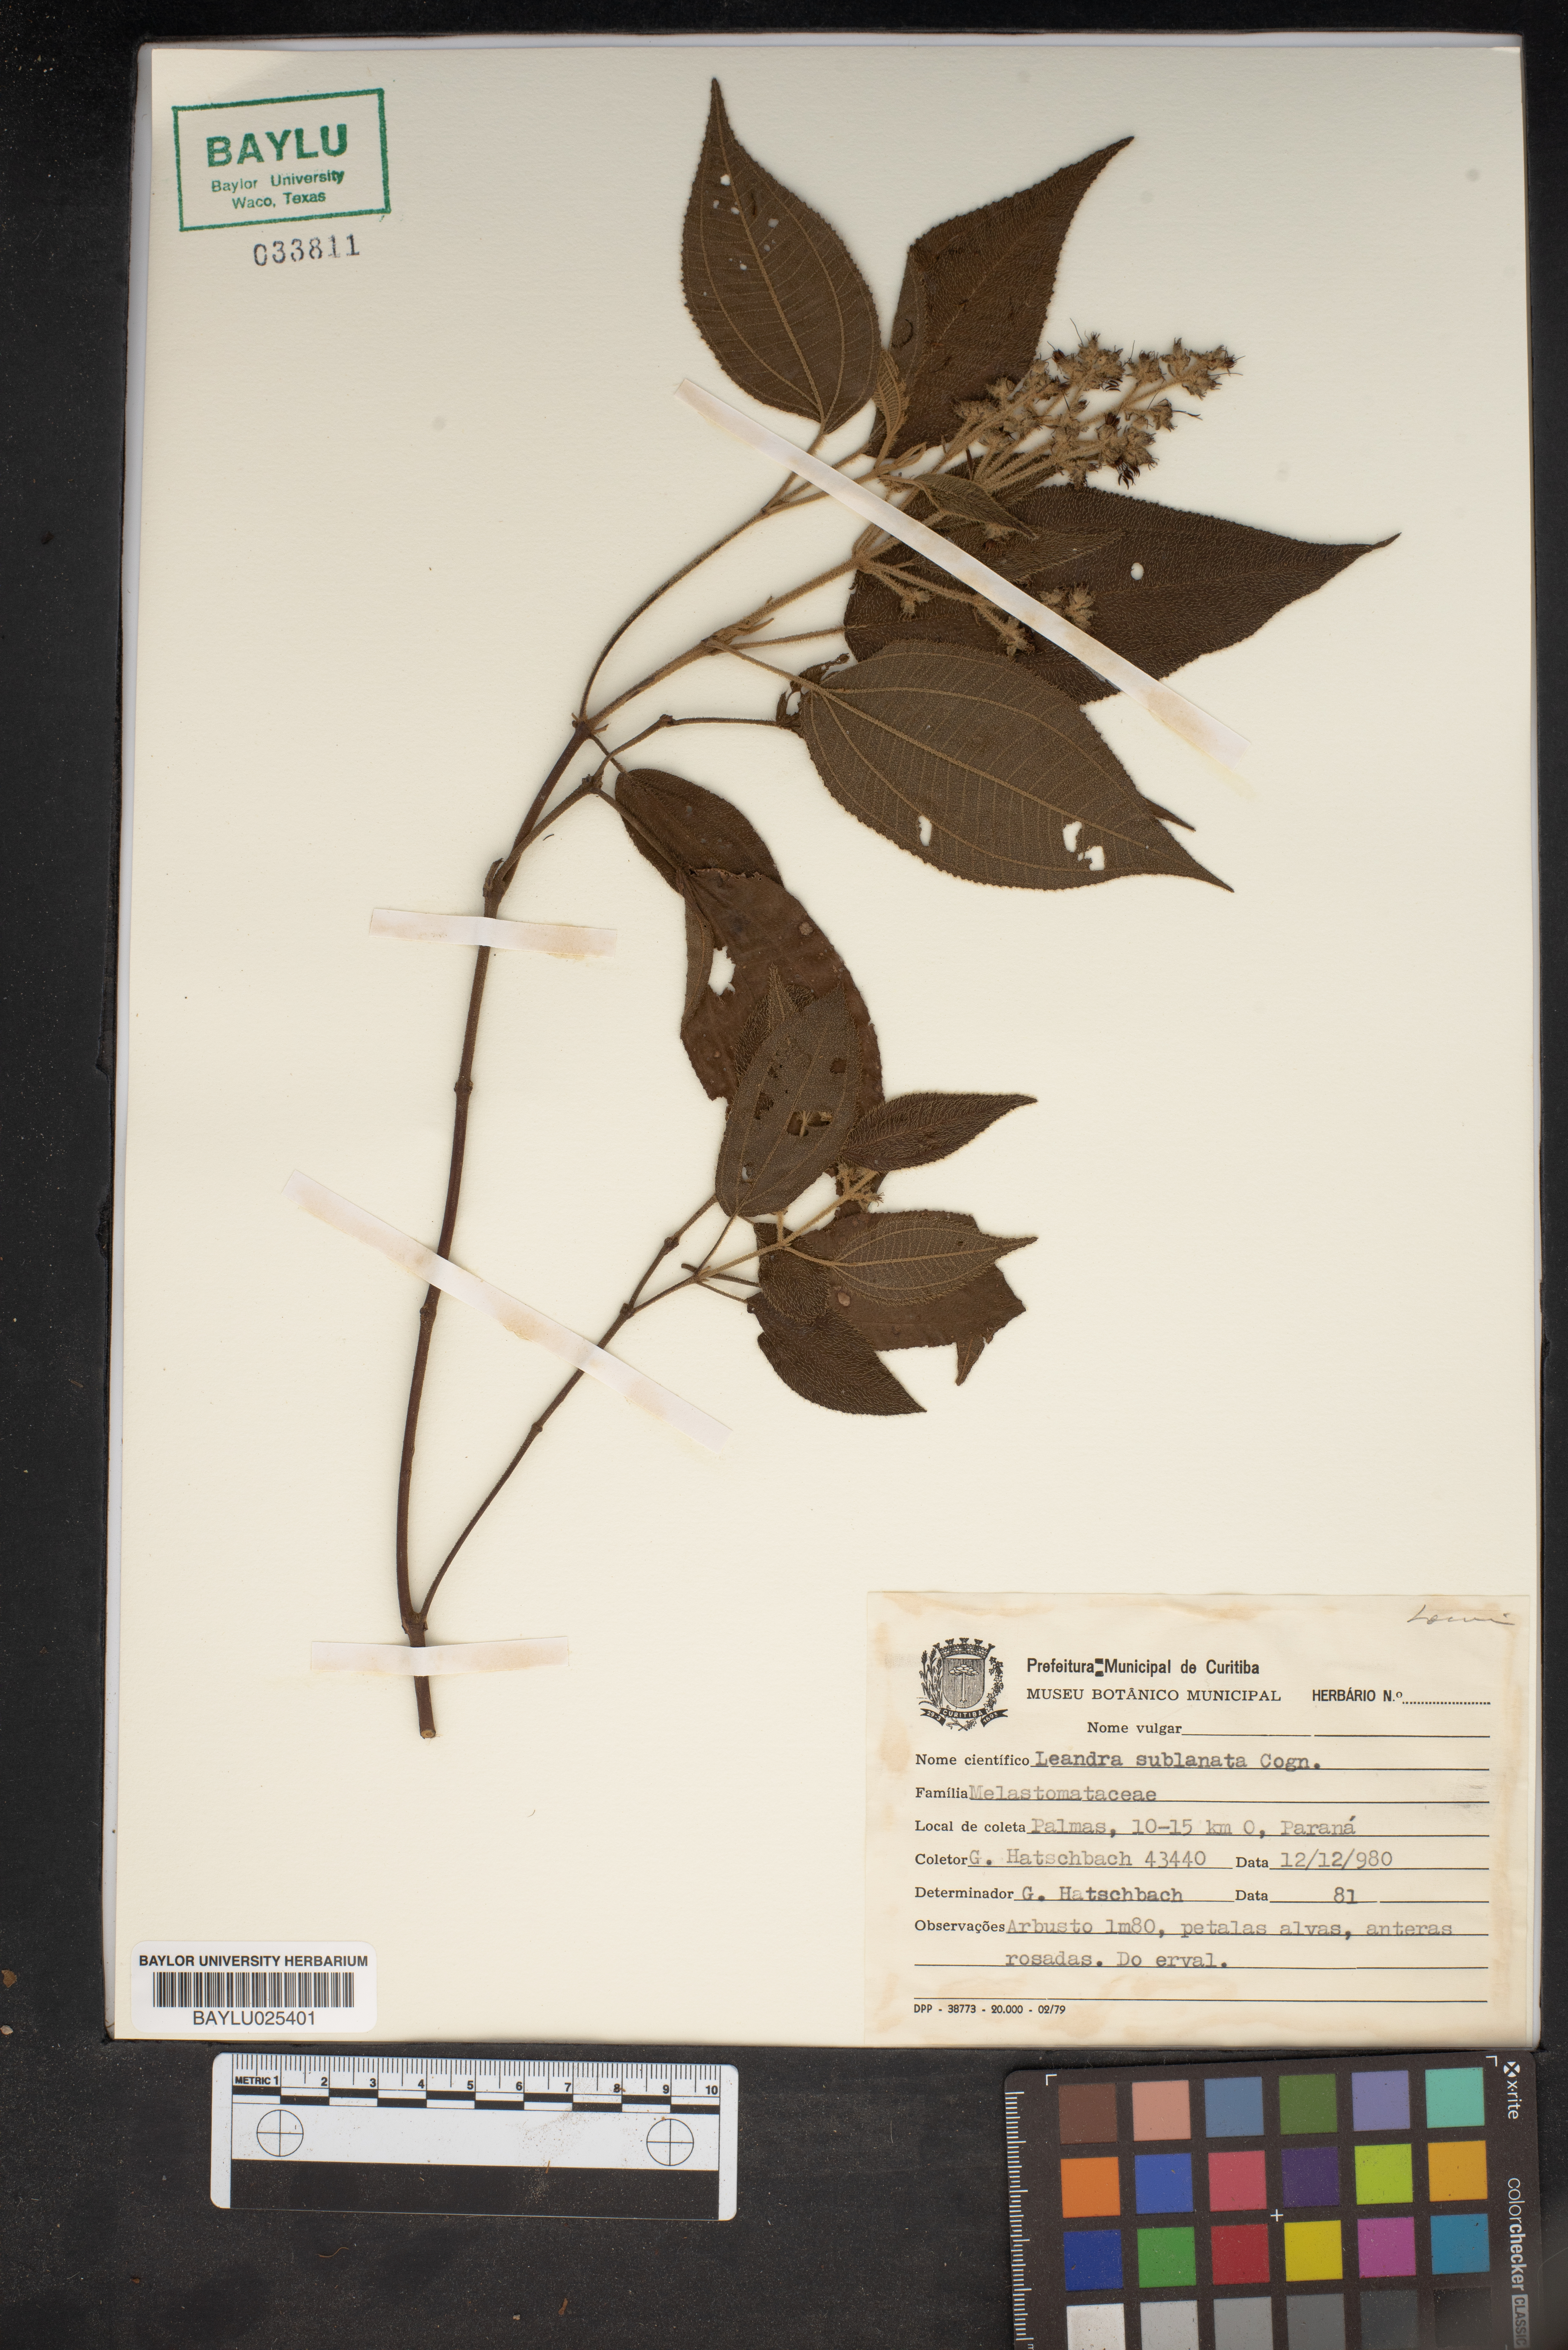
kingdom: Plantae
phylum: Tracheophyta
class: Magnoliopsida
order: Myrtales
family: Melastomataceae
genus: Miconia
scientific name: Miconia subulata
